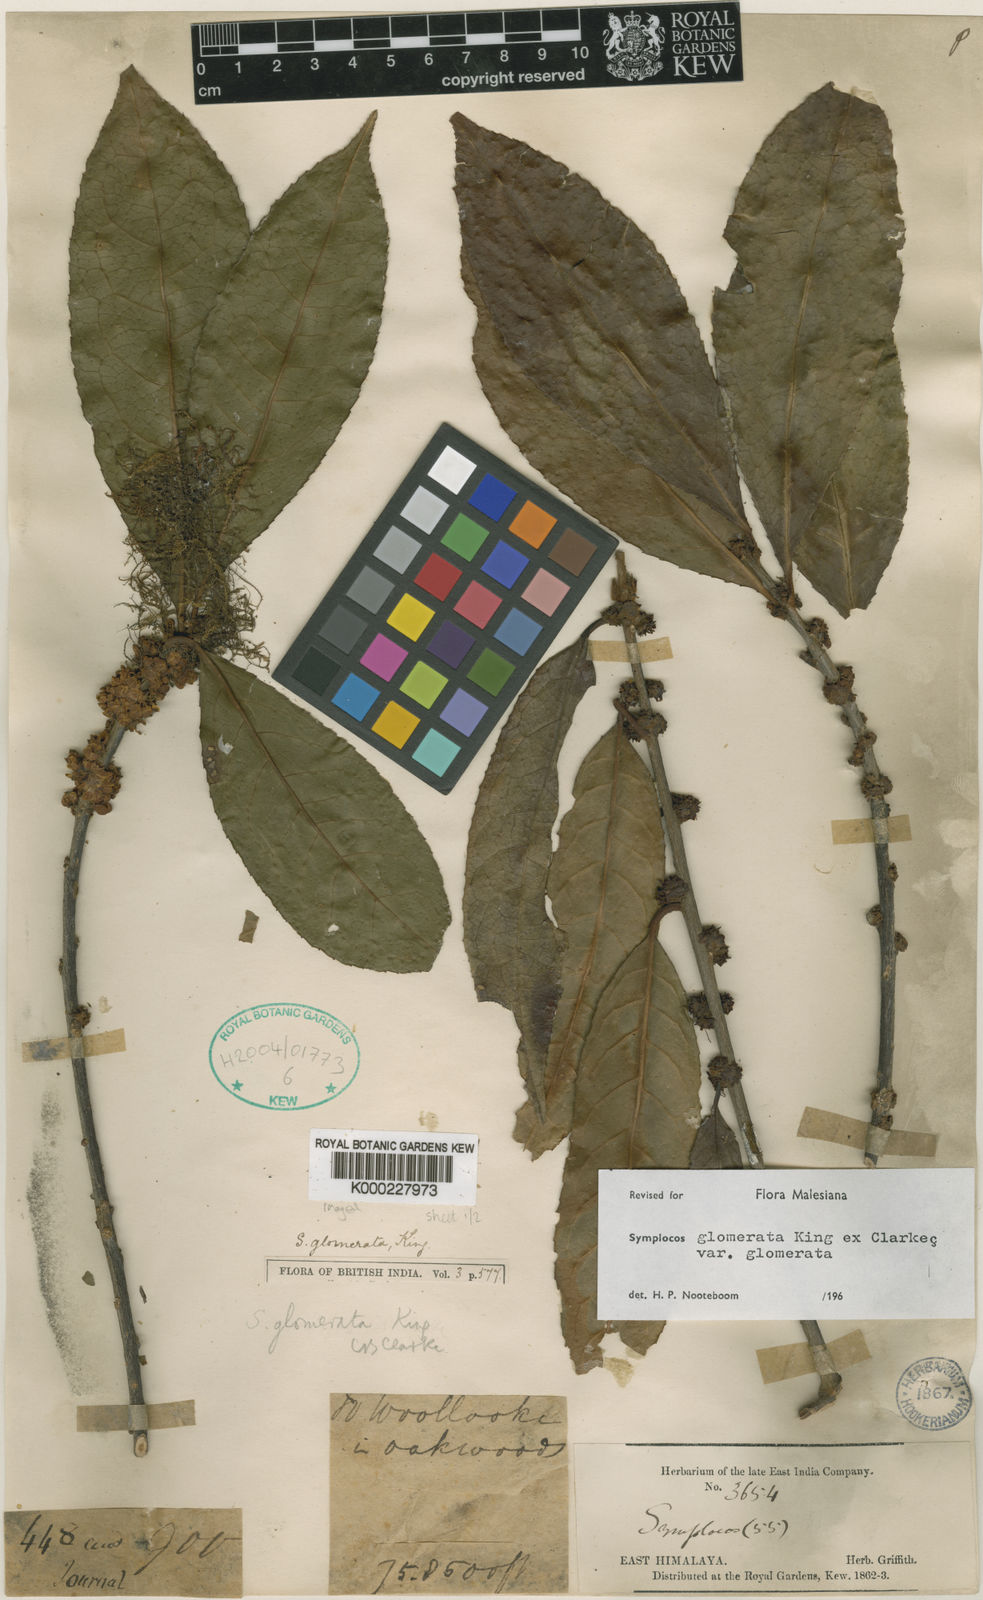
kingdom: Plantae
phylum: Tracheophyta
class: Magnoliopsida
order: Ericales
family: Symplocaceae
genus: Symplocos
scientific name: Symplocos glomerata
